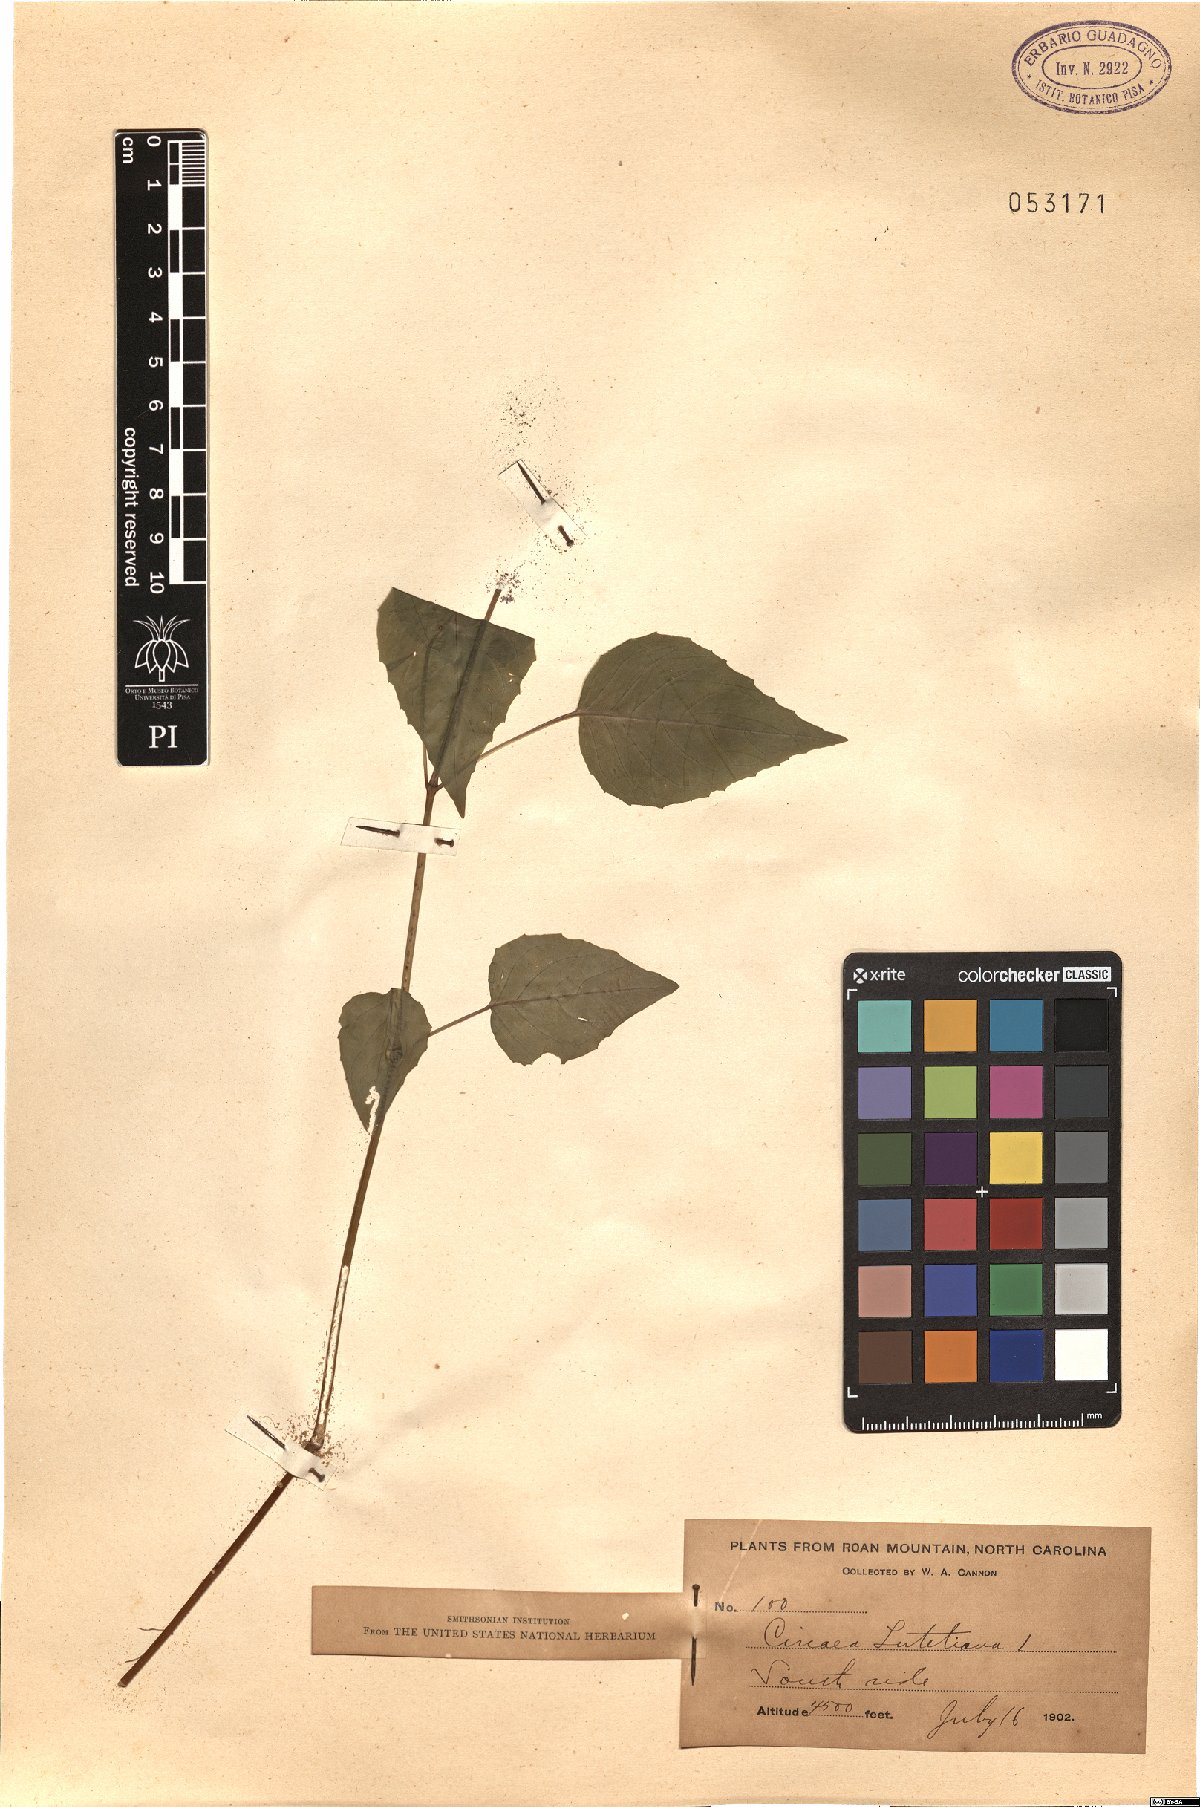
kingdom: Plantae
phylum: Tracheophyta
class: Magnoliopsida
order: Myrtales
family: Onagraceae
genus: Circaea
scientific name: Circaea lutetiana
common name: Enchanter's-nightshade
